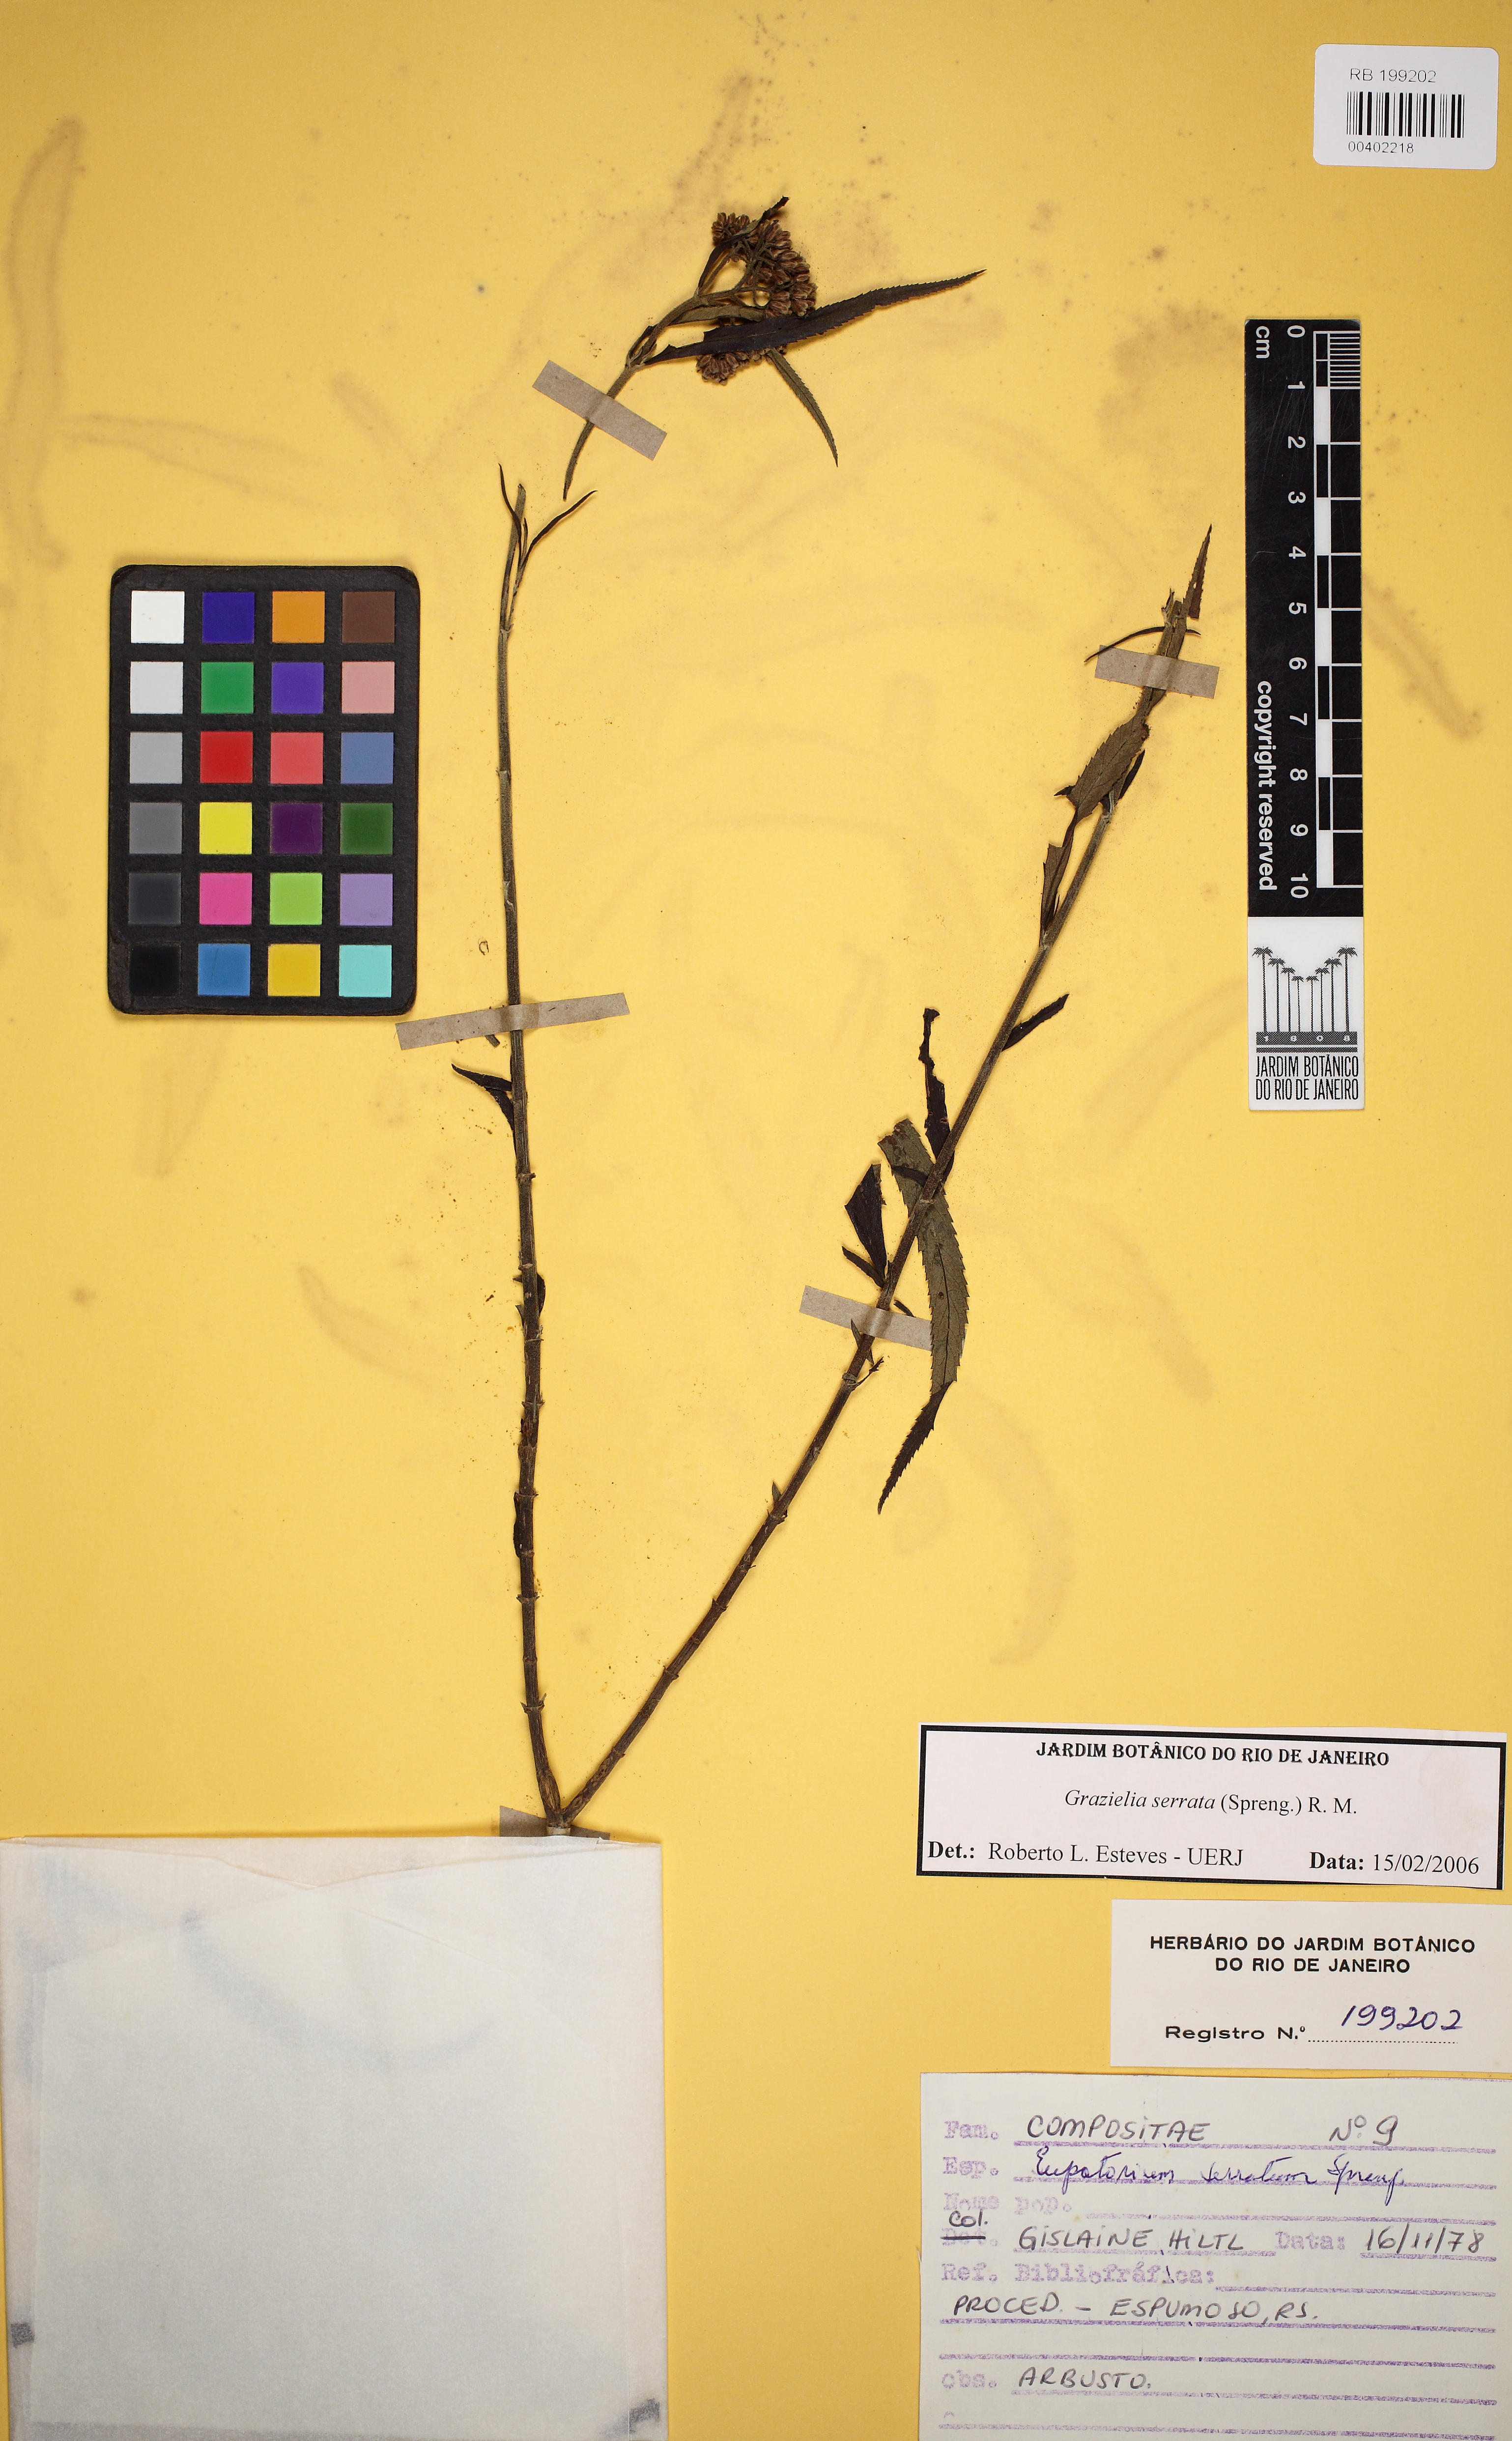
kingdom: Plantae
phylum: Tracheophyta
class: Magnoliopsida
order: Asterales
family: Asteraceae
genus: Grazielia
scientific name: Grazielia serrata
